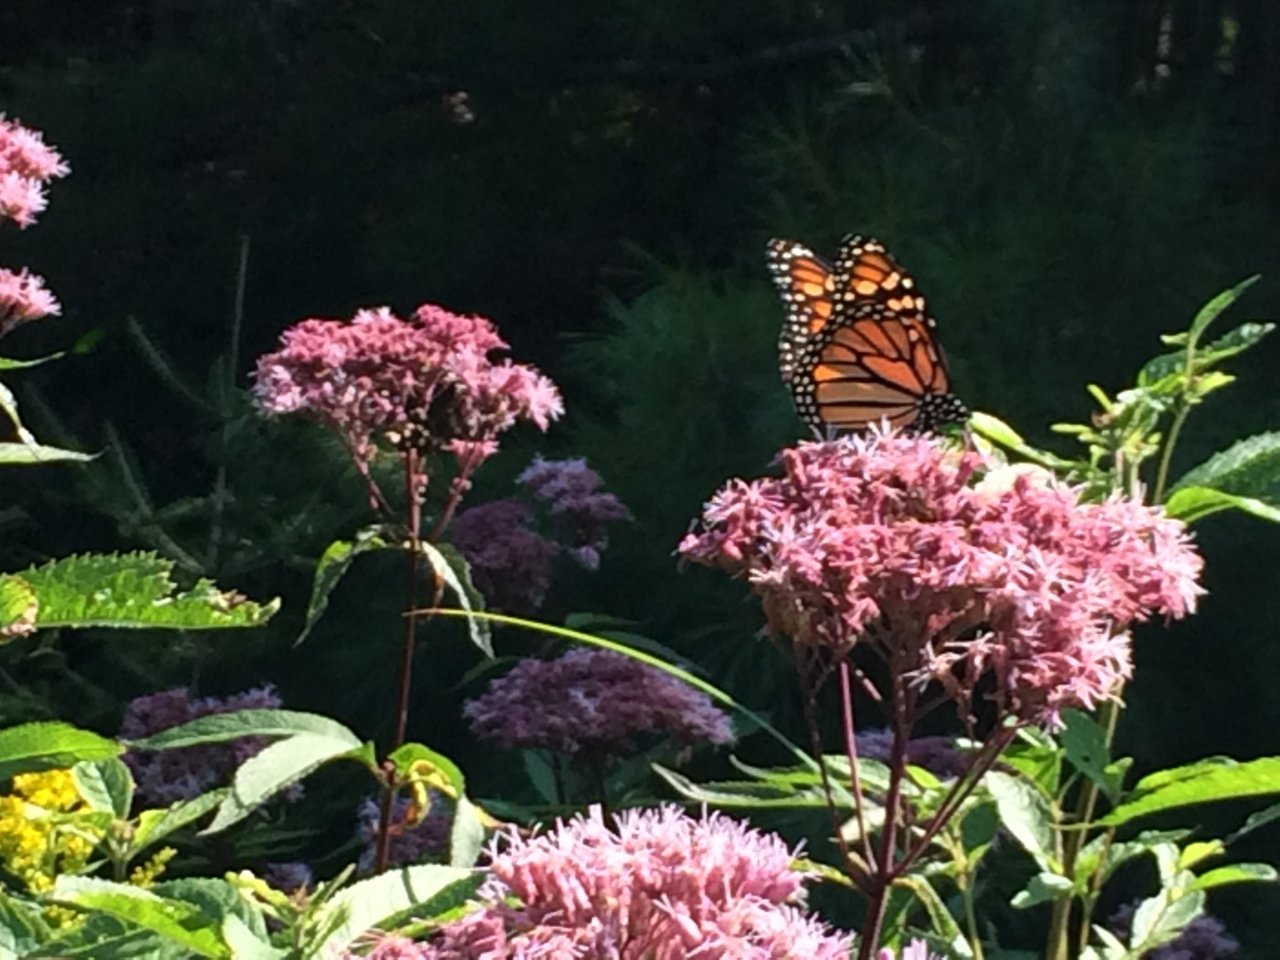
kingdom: Animalia
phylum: Arthropoda
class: Insecta
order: Lepidoptera
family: Nymphalidae
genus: Danaus
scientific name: Danaus plexippus
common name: Monarch
